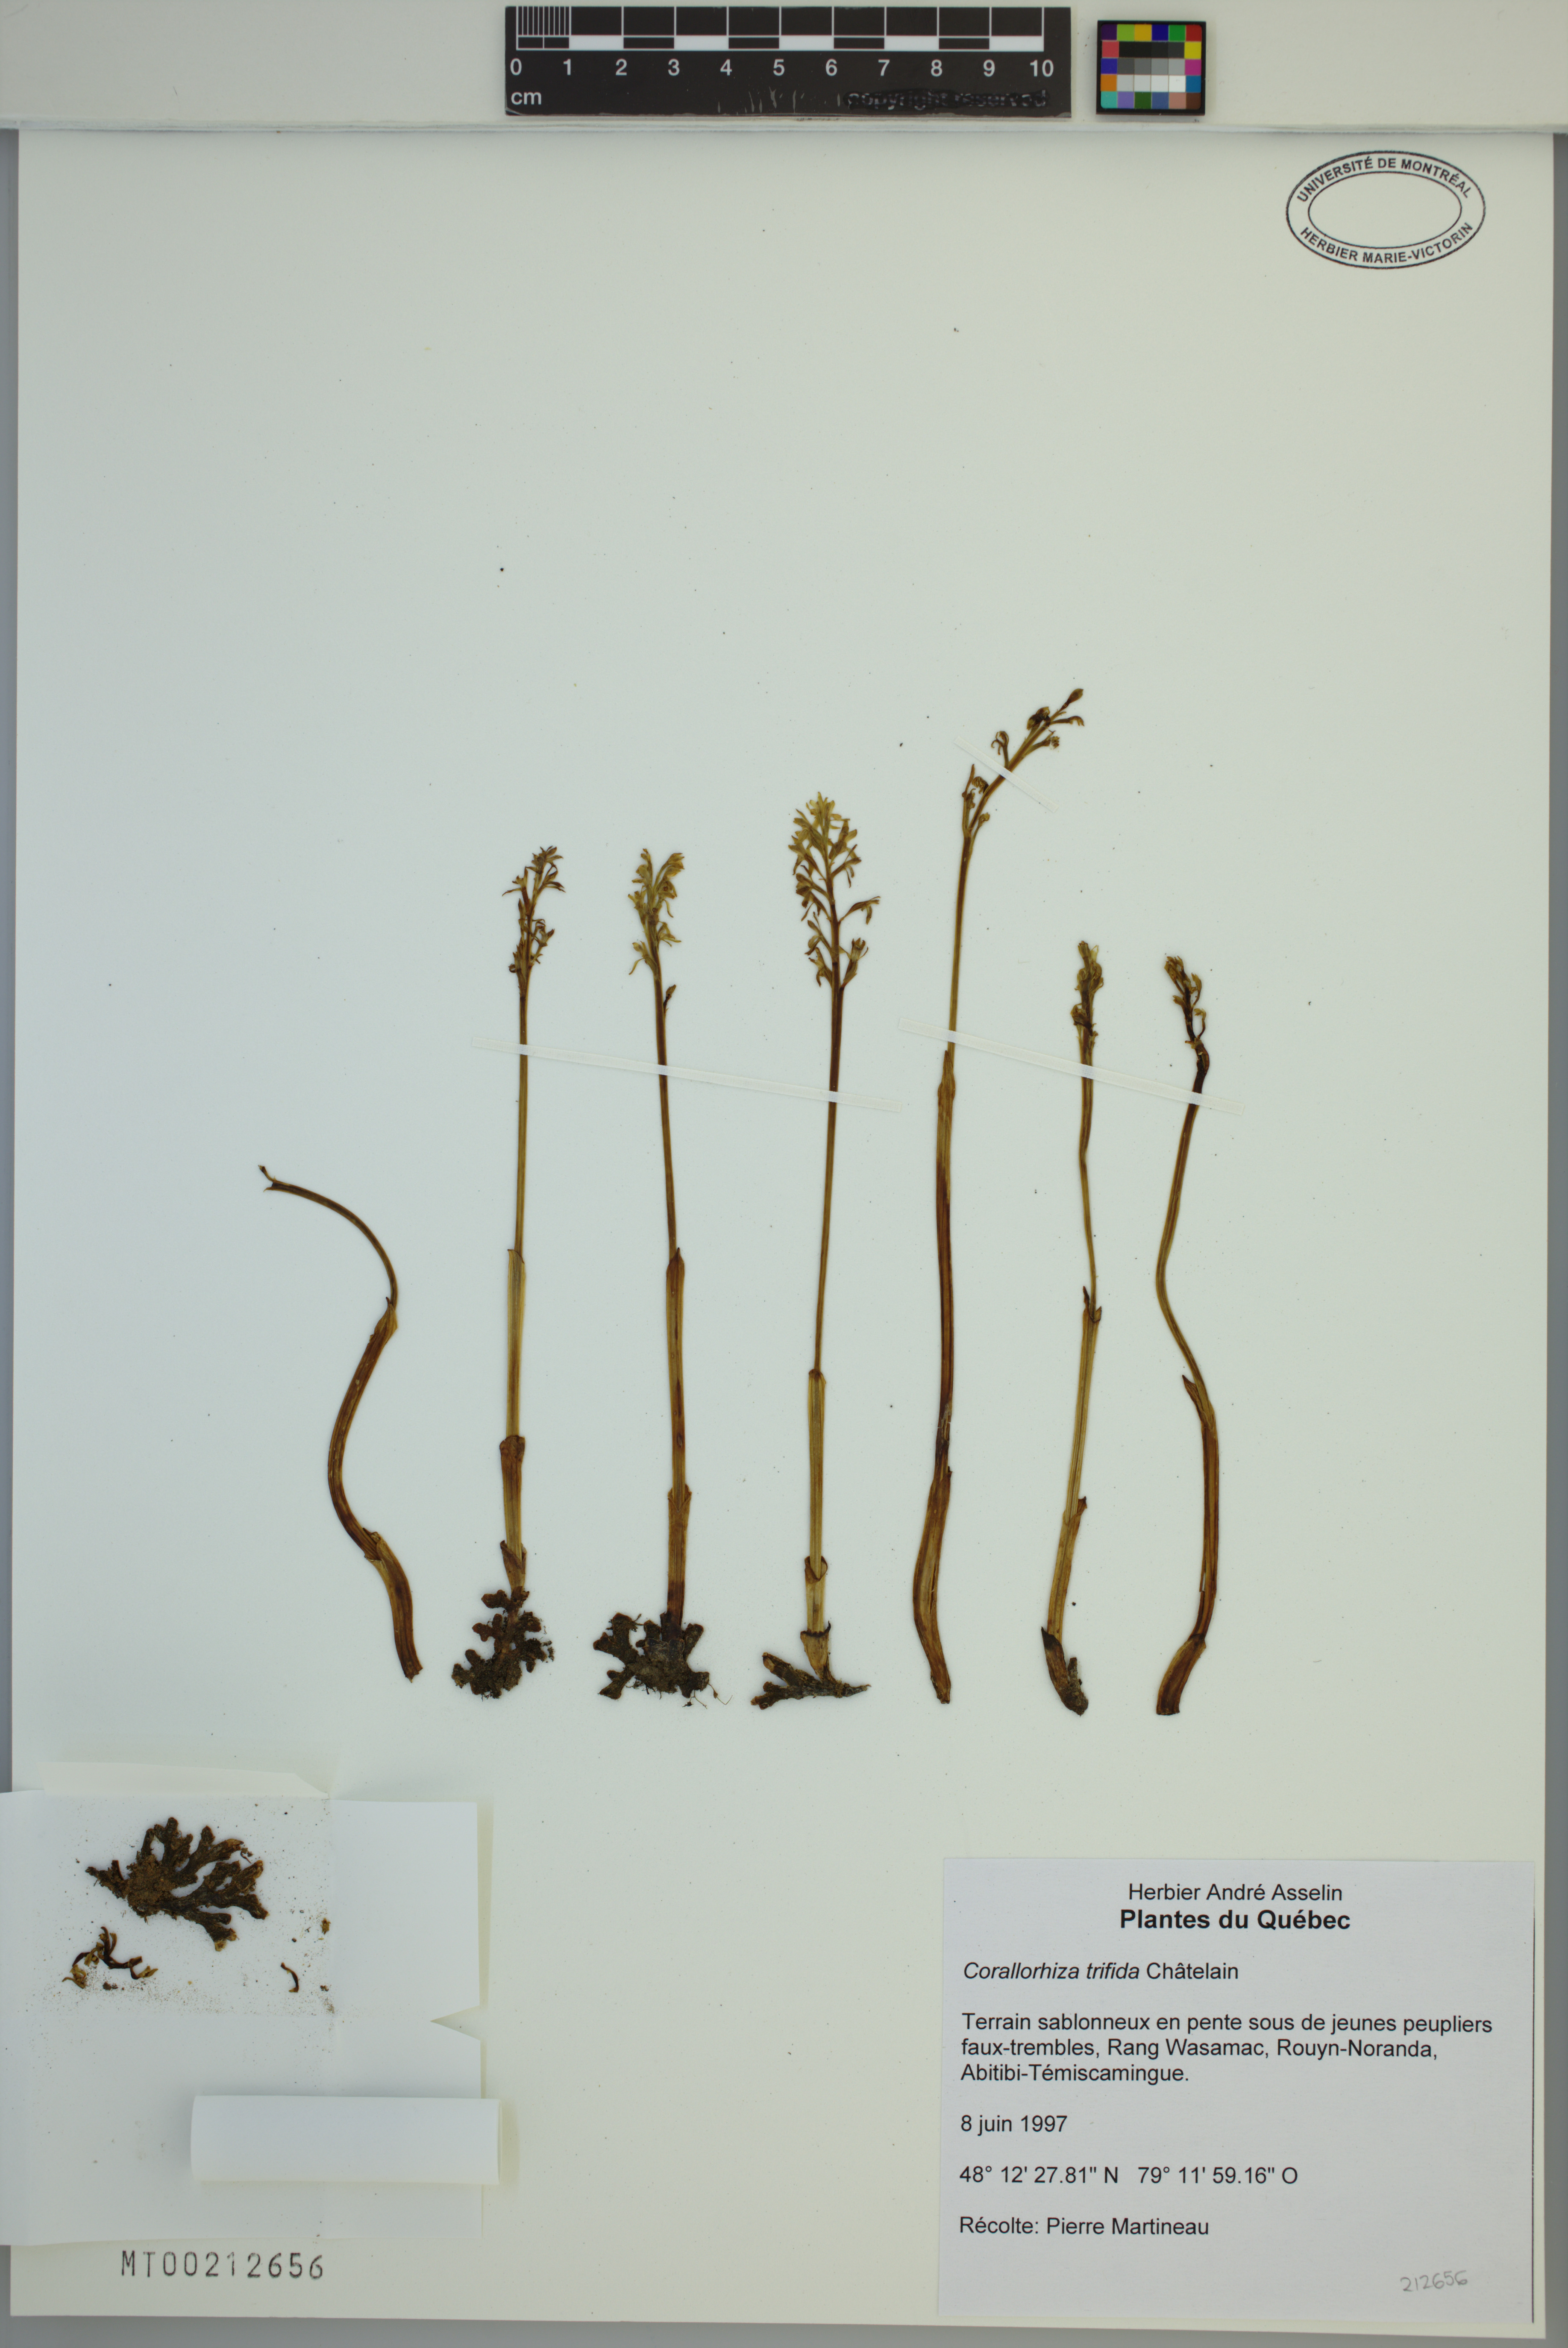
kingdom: Plantae
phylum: Tracheophyta
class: Liliopsida
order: Asparagales
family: Orchidaceae
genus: Corallorhiza
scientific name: Corallorhiza trifida
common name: Yellow coralroot
